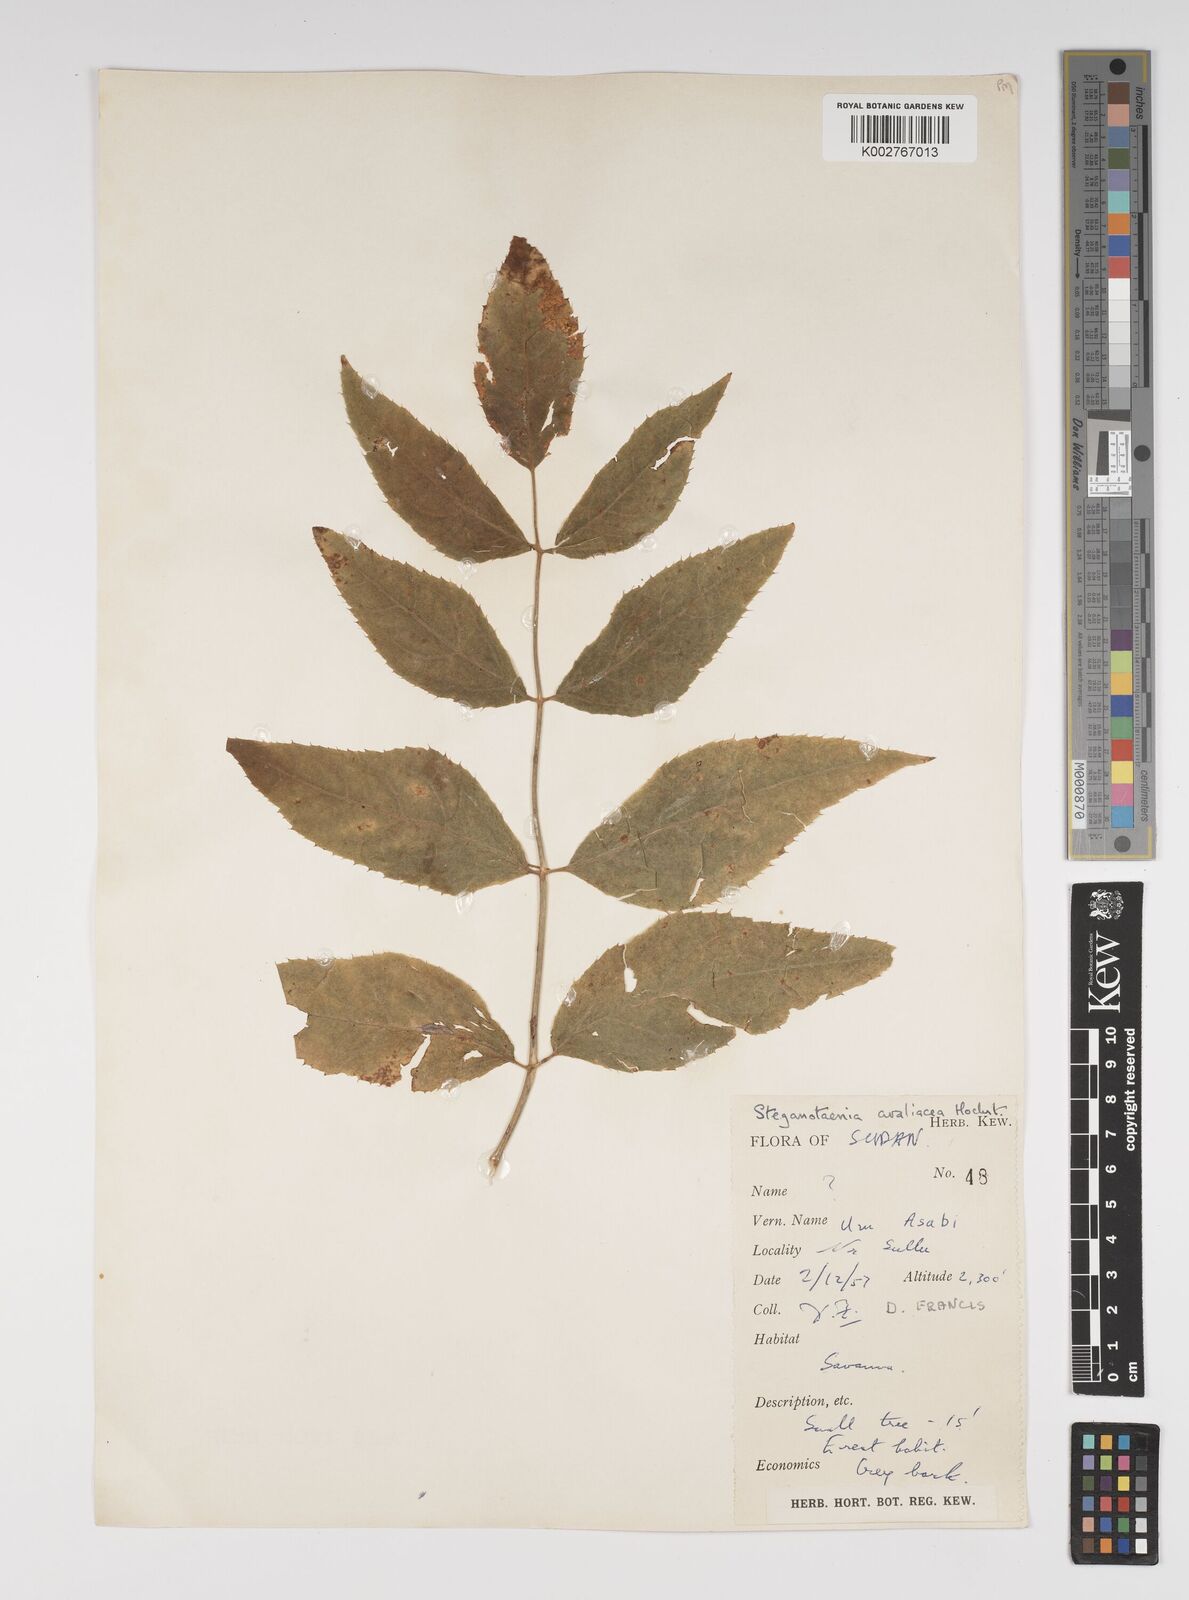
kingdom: Plantae
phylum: Tracheophyta
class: Magnoliopsida
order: Apiales
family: Apiaceae
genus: Steganotaenia
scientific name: Steganotaenia
